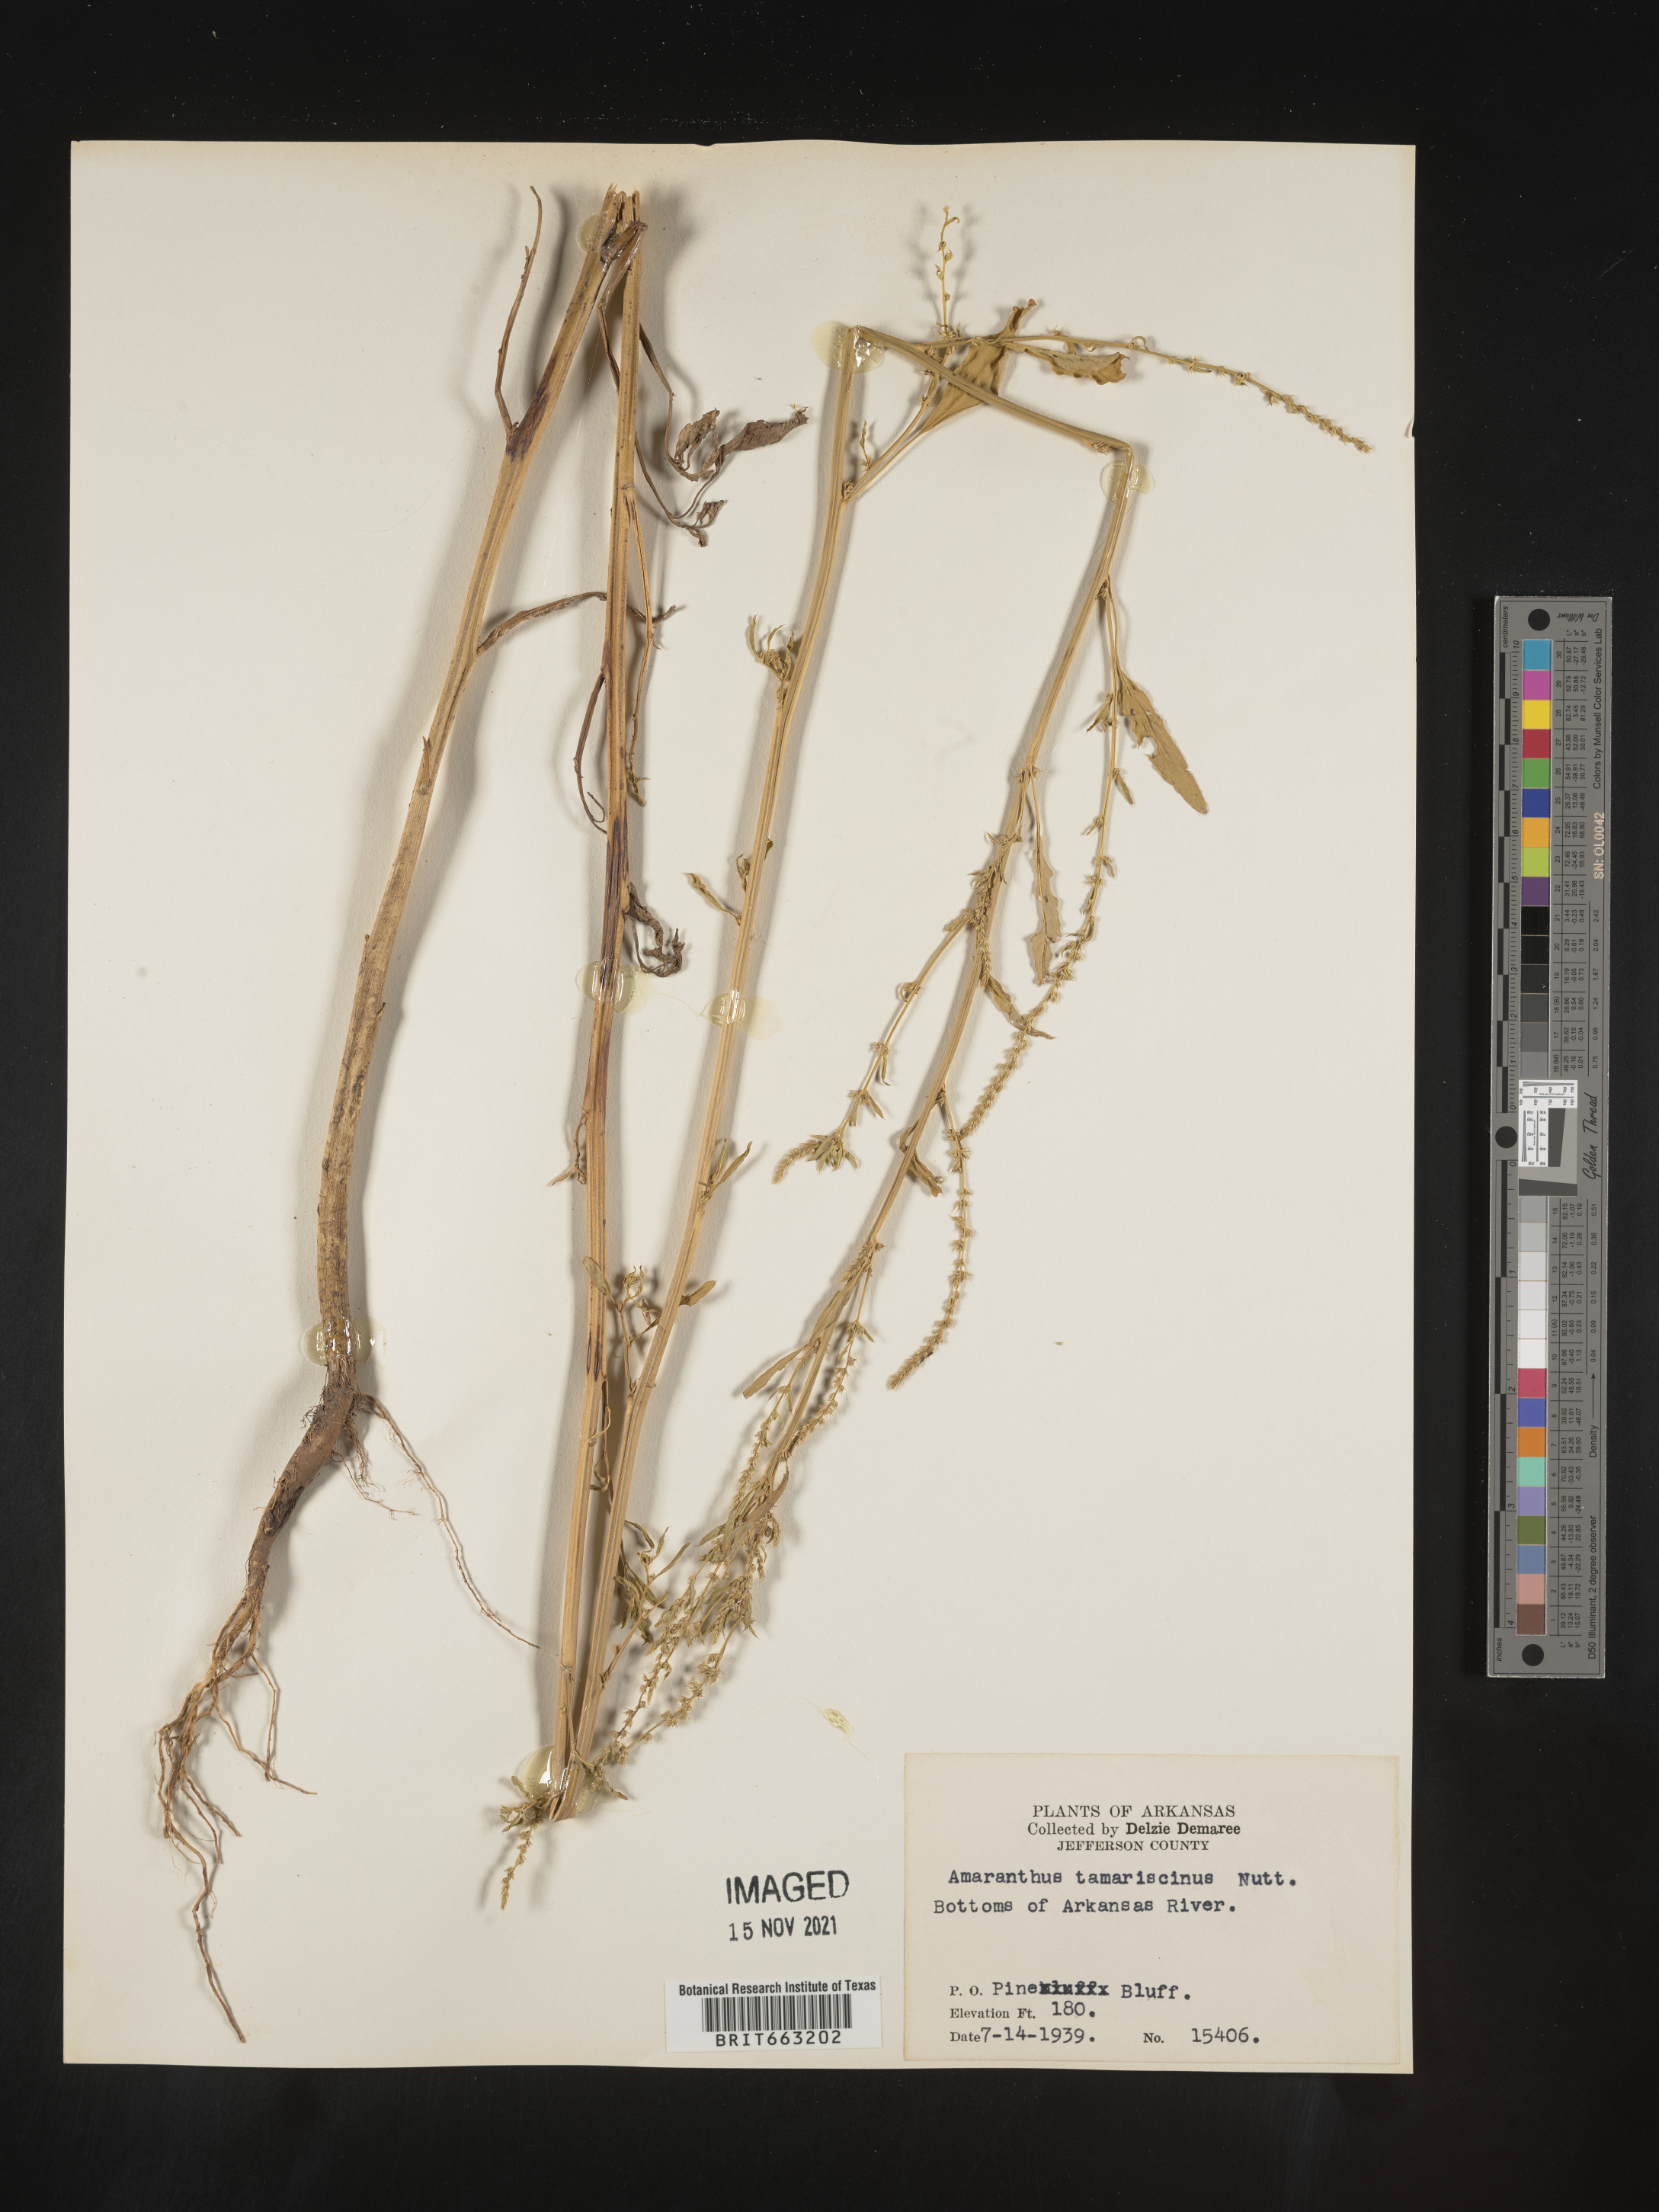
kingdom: Plantae
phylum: Tracheophyta
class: Magnoliopsida
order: Caryophyllales
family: Amaranthaceae
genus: Amaranthus
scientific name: Amaranthus tamariscinus
